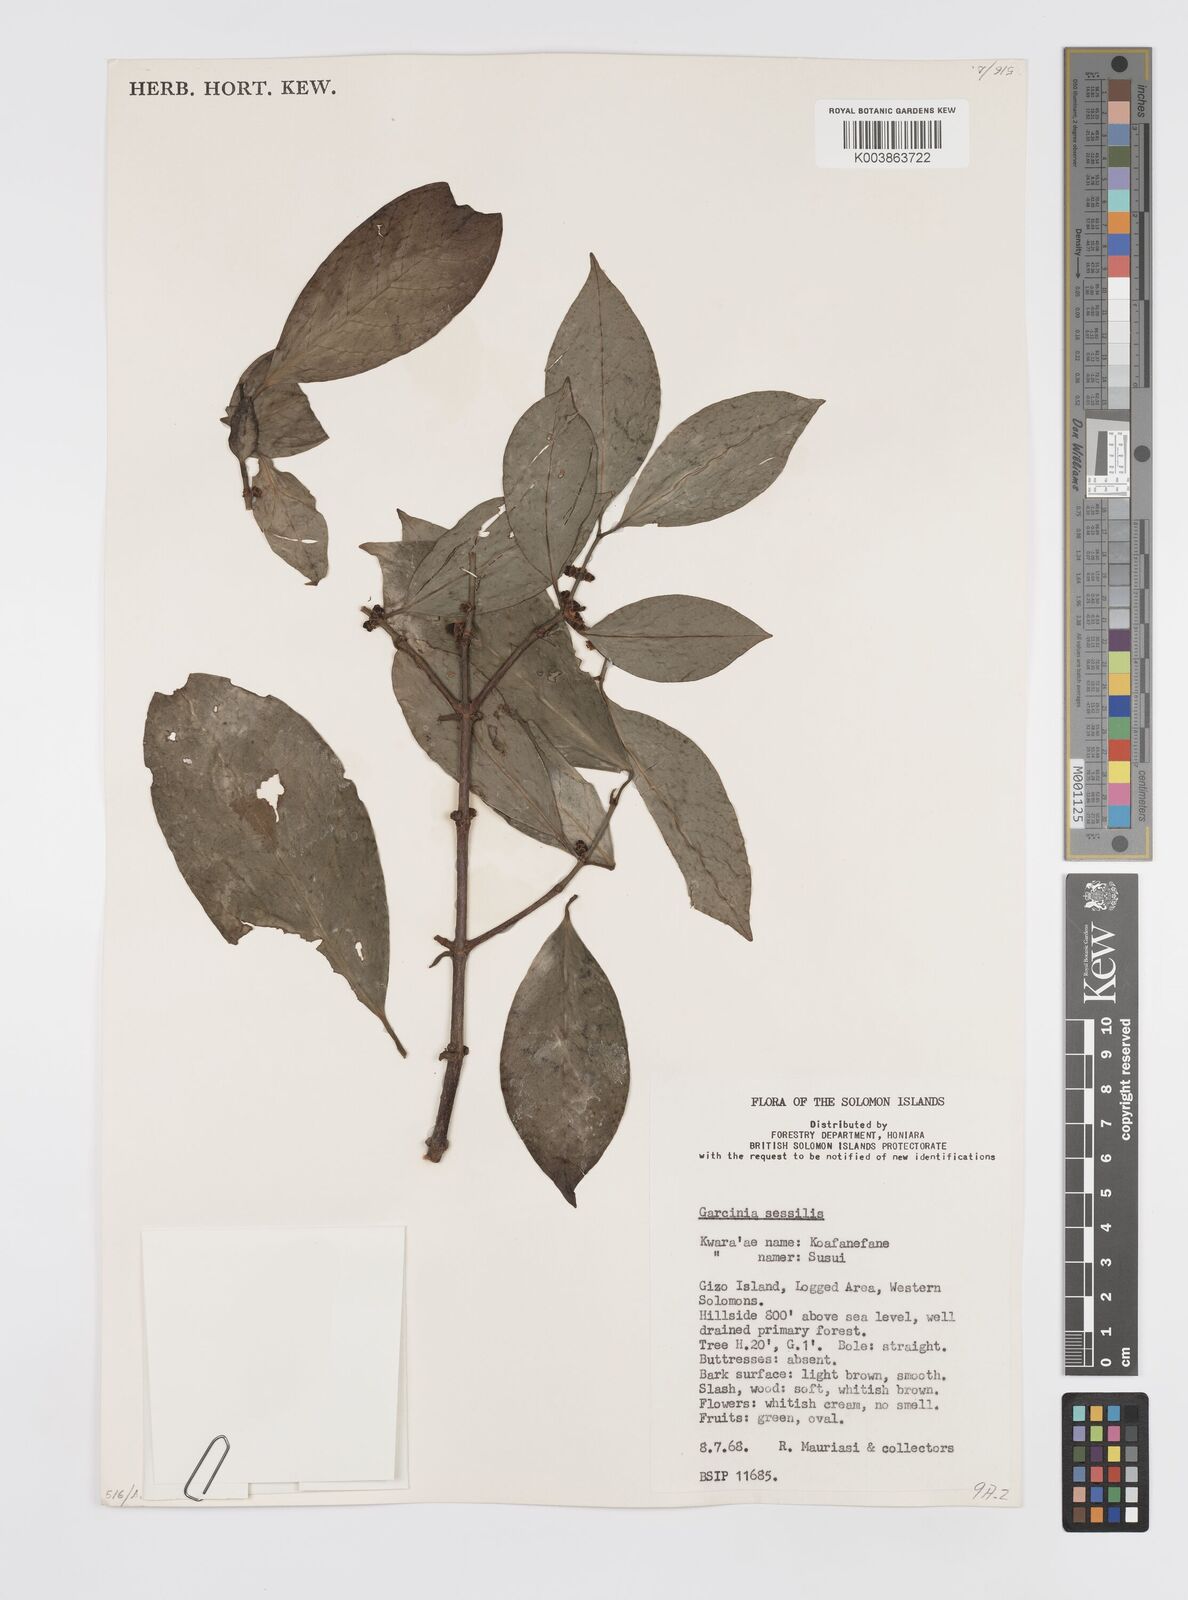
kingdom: Plantae
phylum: Tracheophyta
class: Magnoliopsida
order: Malpighiales
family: Clusiaceae
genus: Garcinia
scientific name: Garcinia sessilis
